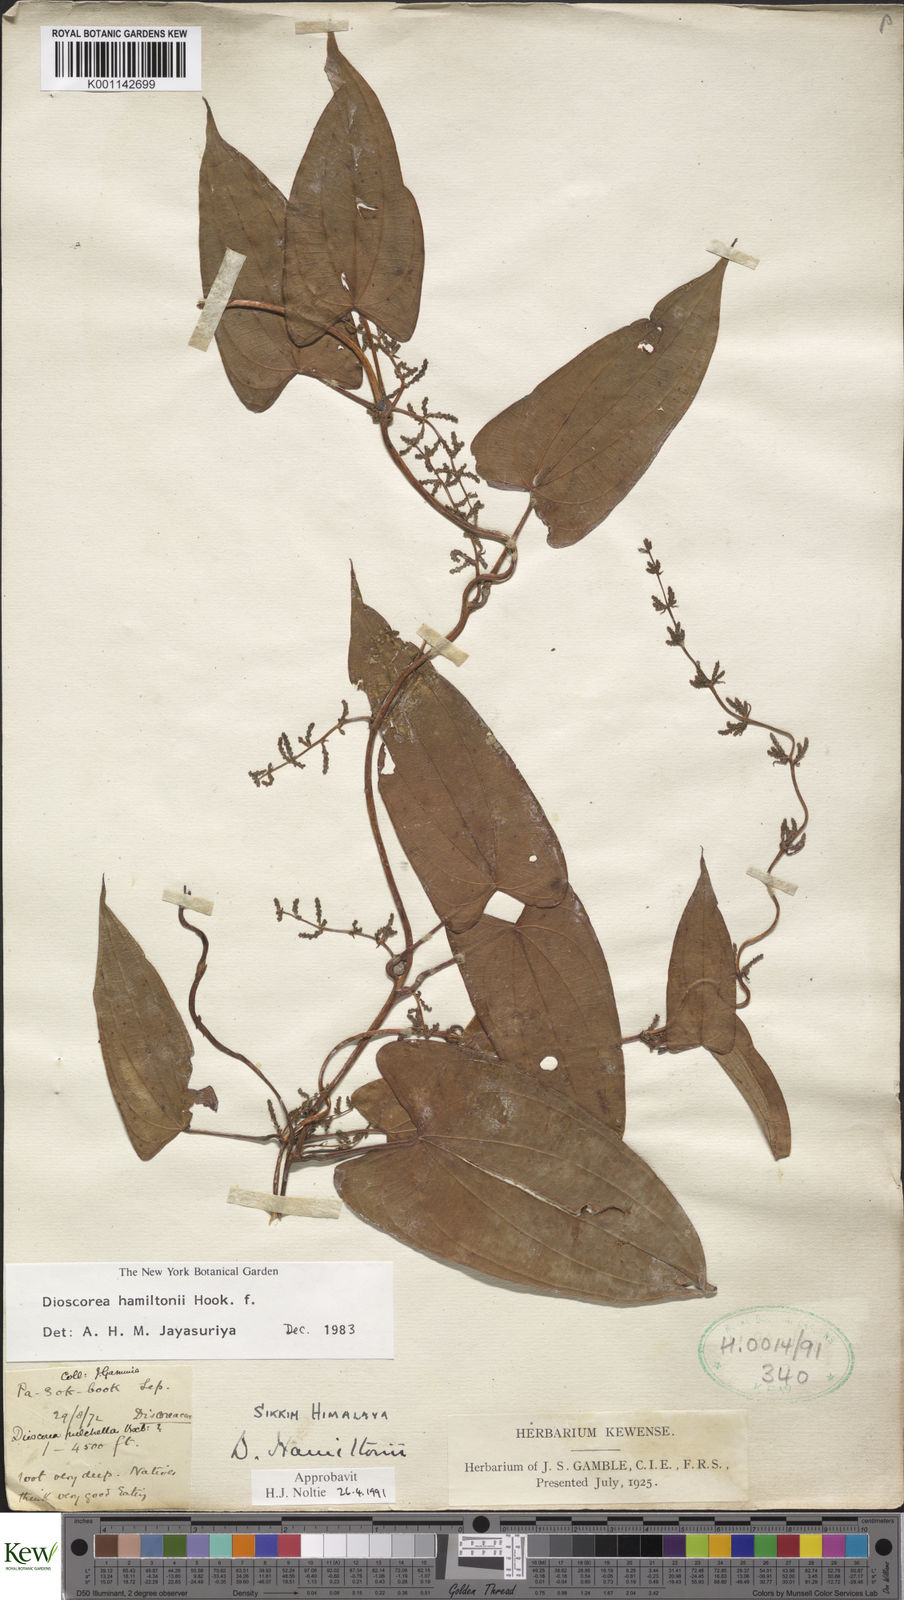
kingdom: Plantae
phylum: Tracheophyta
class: Liliopsida
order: Dioscoreales
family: Dioscoreaceae
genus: Dioscorea
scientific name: Dioscorea hamiltonii
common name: Mountain yam
